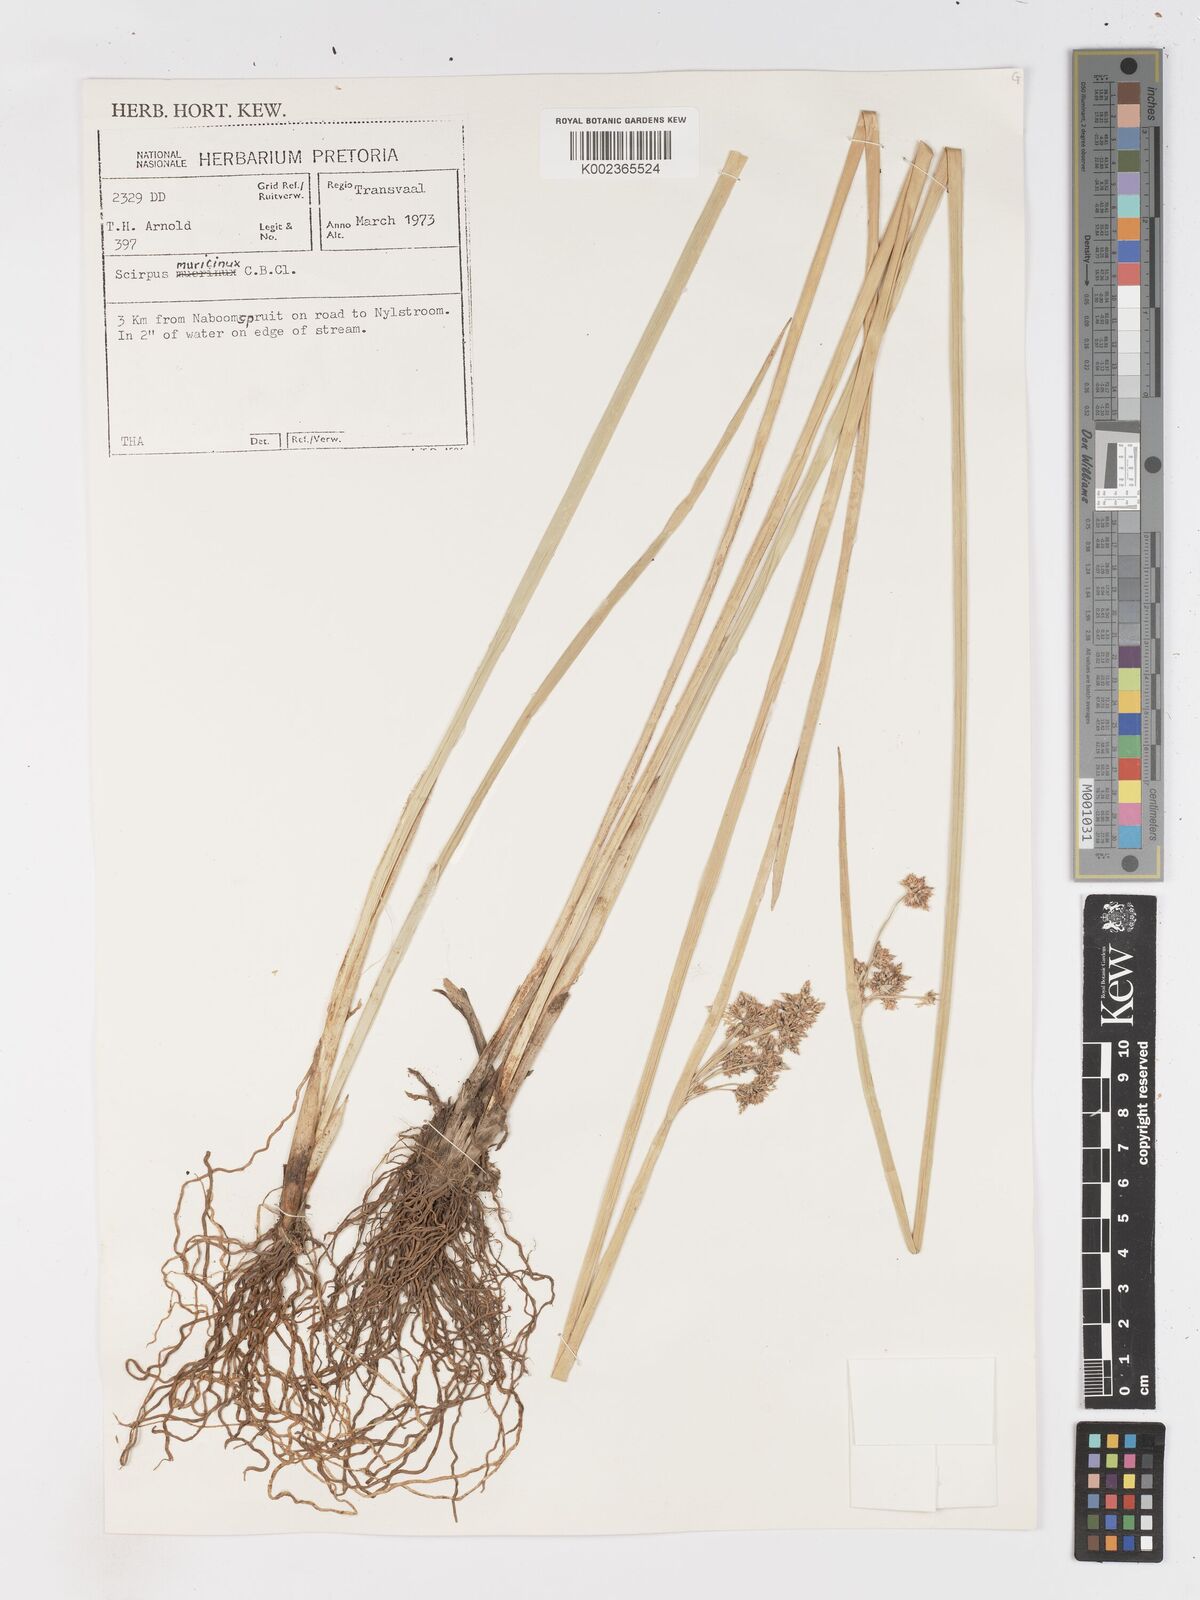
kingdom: Plantae
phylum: Tracheophyta
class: Liliopsida
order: Poales
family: Cyperaceae
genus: Schoenoplectiella
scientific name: Schoenoplectiella muricinux
